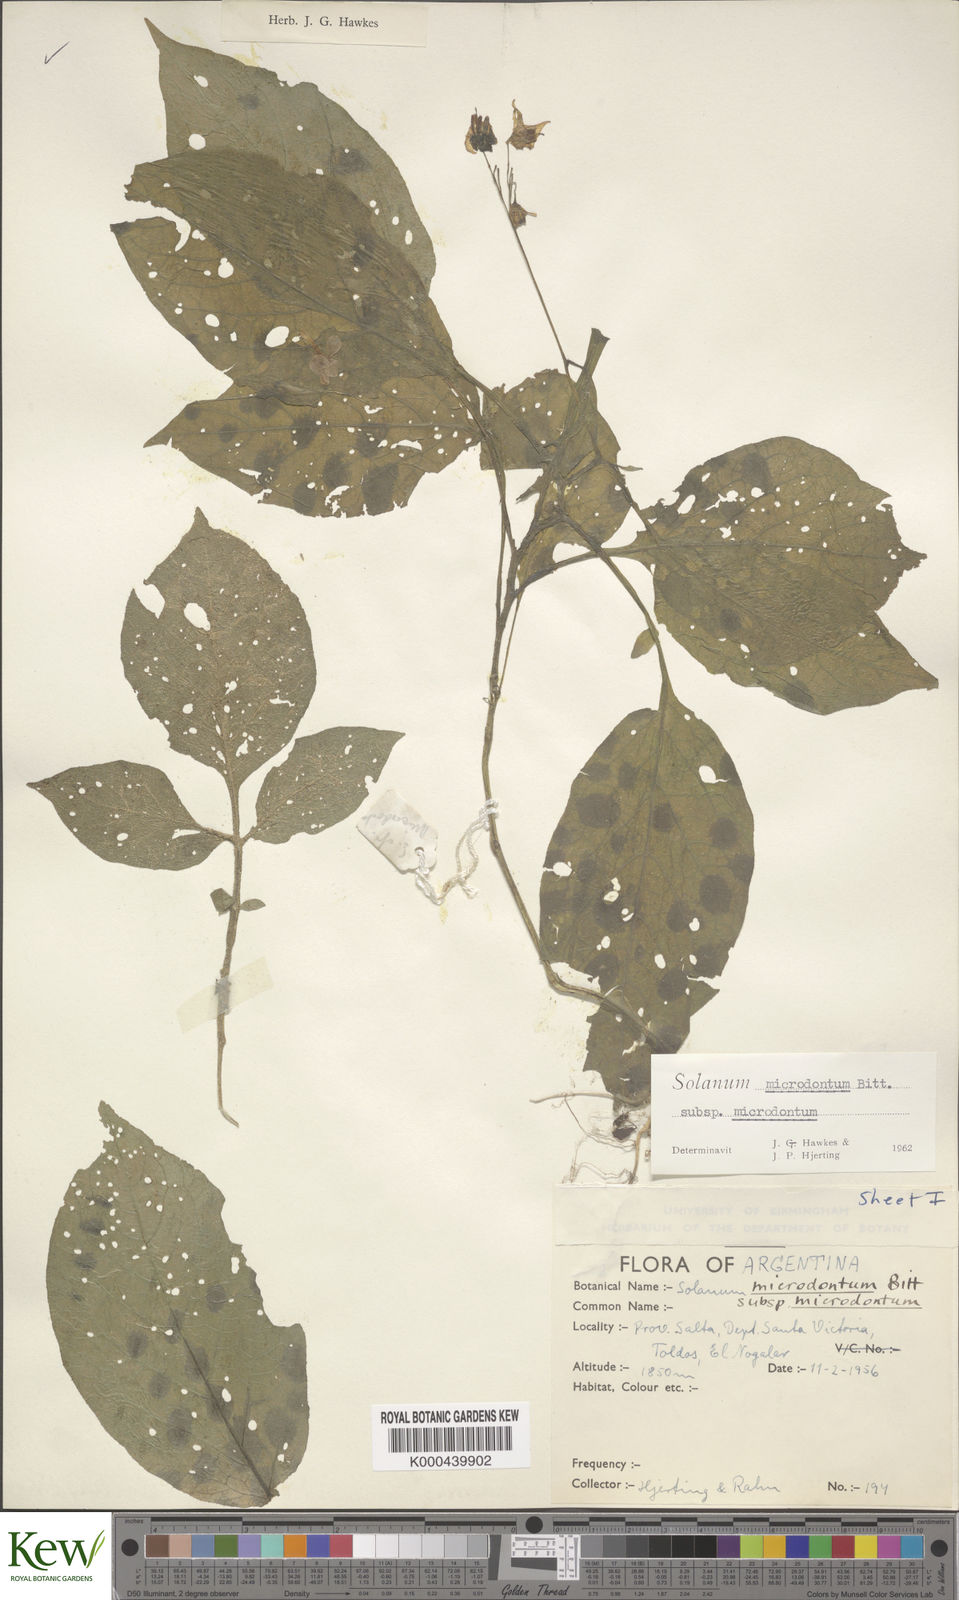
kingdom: Plantae
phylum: Tracheophyta
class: Magnoliopsida
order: Solanales
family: Solanaceae
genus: Solanum
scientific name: Solanum microdontum
